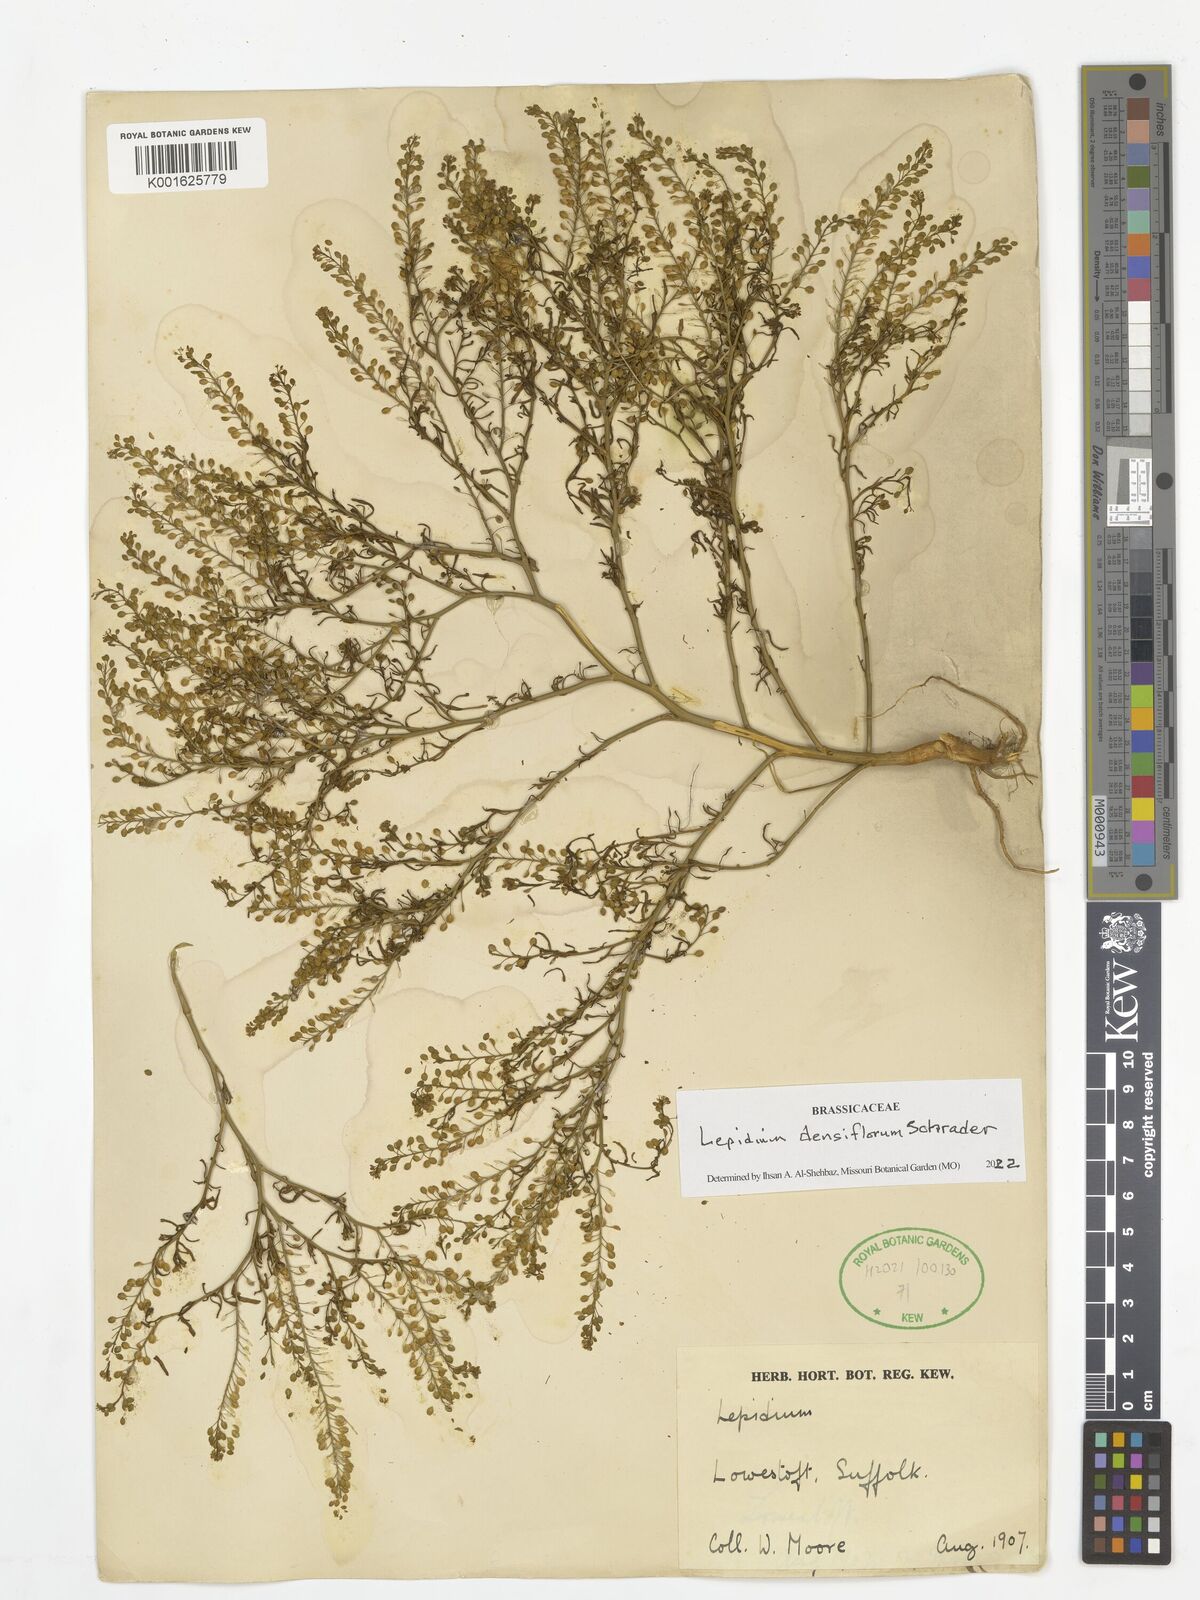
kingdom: Plantae
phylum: Tracheophyta
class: Magnoliopsida
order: Brassicales
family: Brassicaceae
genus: Lepidium
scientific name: Lepidium densiflorum
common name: Miner's pepperwort
